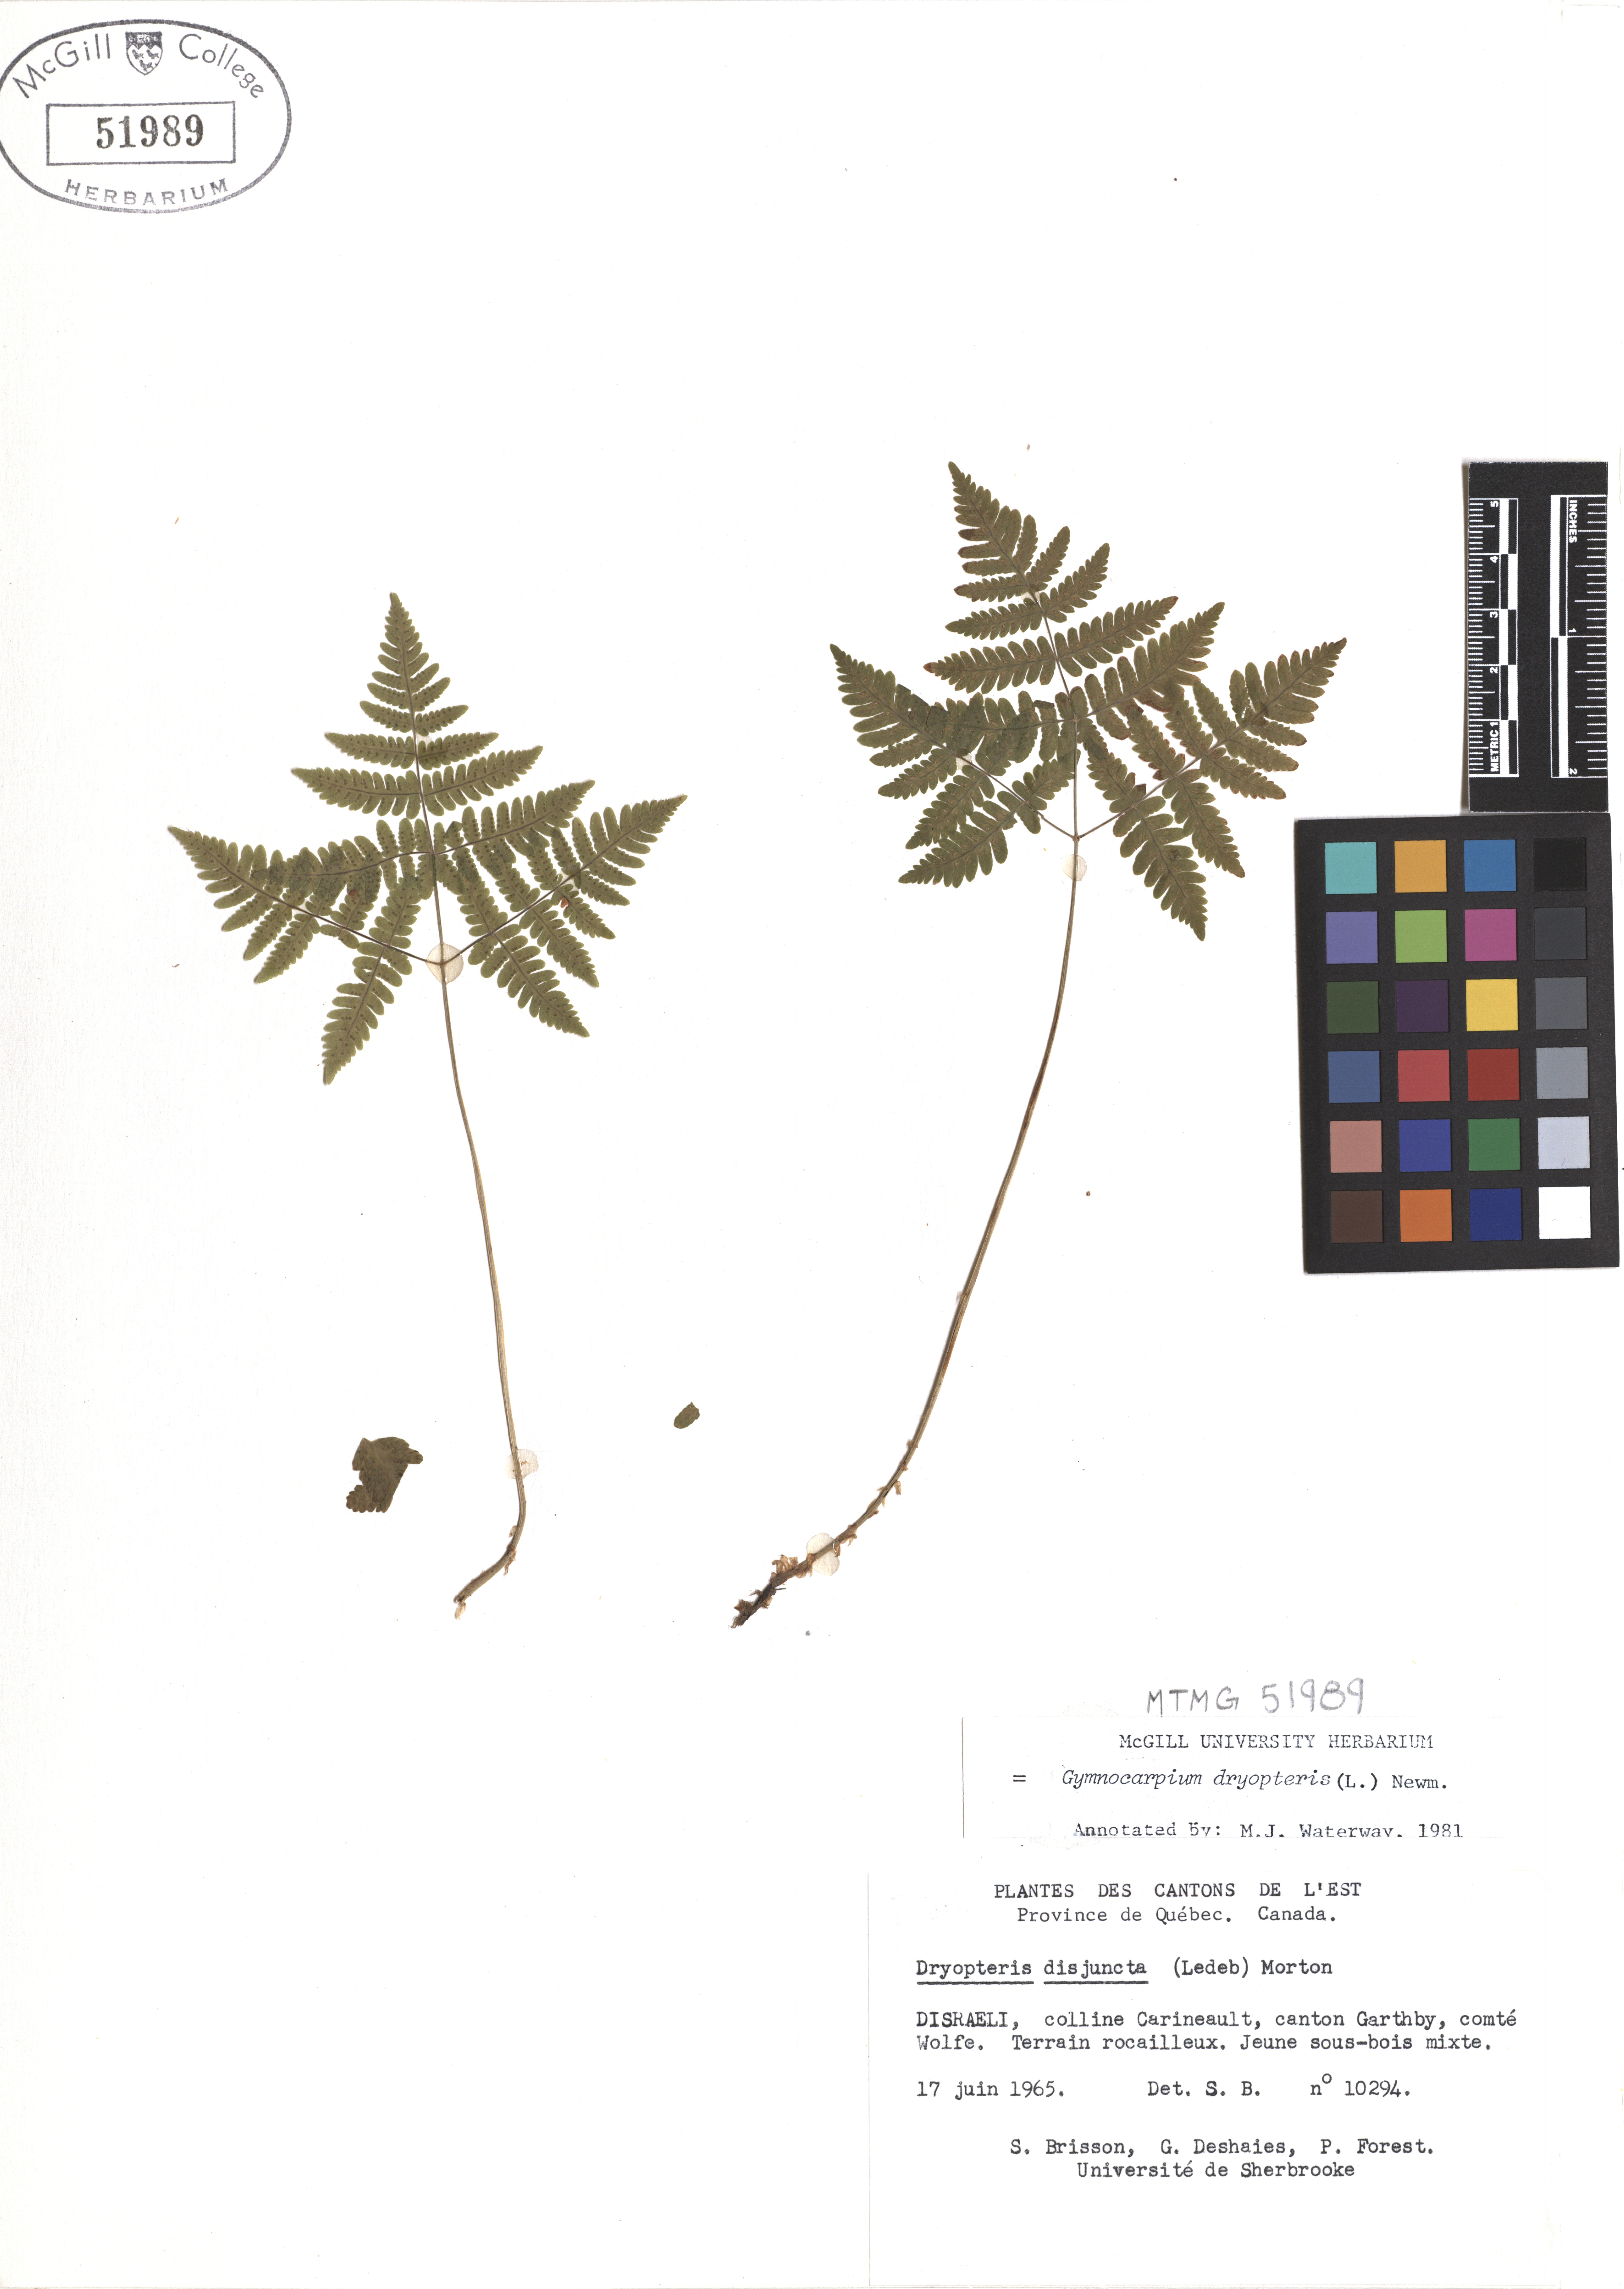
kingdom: Plantae
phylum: Tracheophyta
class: Polypodiopsida
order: Polypodiales
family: Cystopteridaceae
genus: Gymnocarpium
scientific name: Gymnocarpium dryopteris
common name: Oak fern
